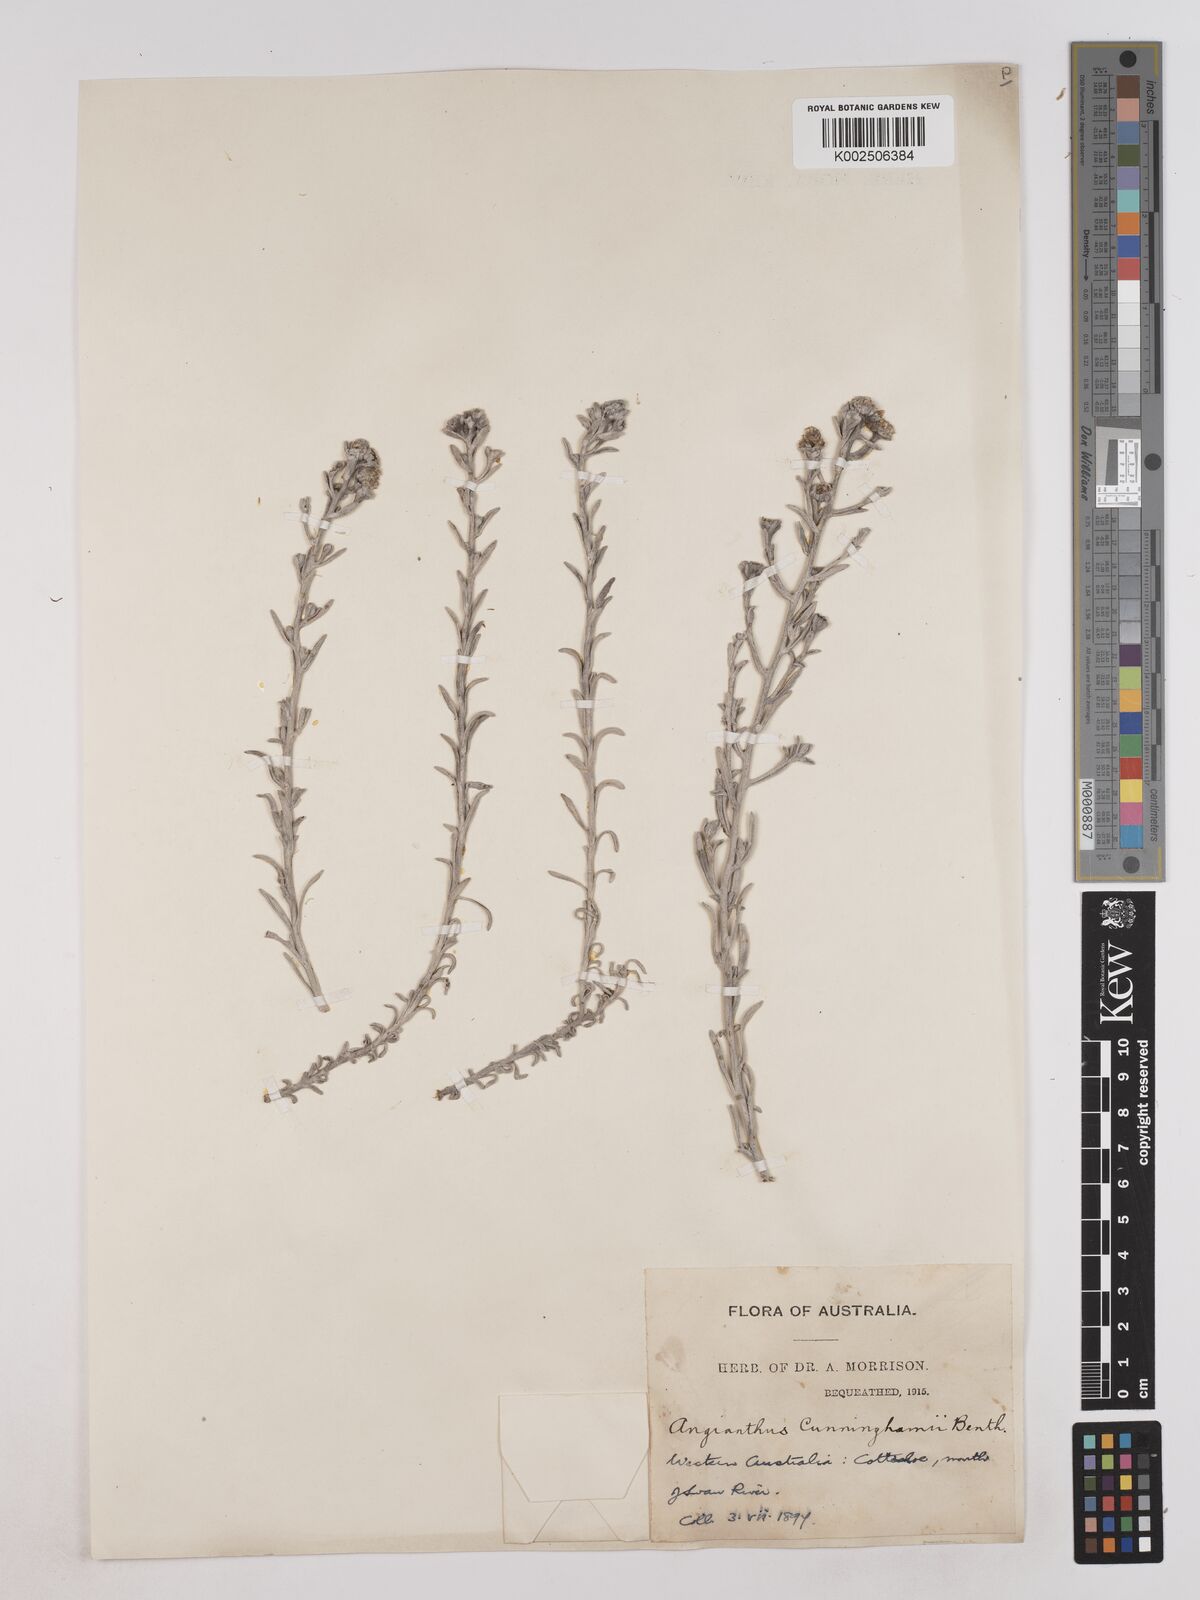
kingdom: Plantae
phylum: Tracheophyta
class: Magnoliopsida
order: Asterales
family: Asteraceae
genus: Angianthus
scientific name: Angianthus cunninghamii
